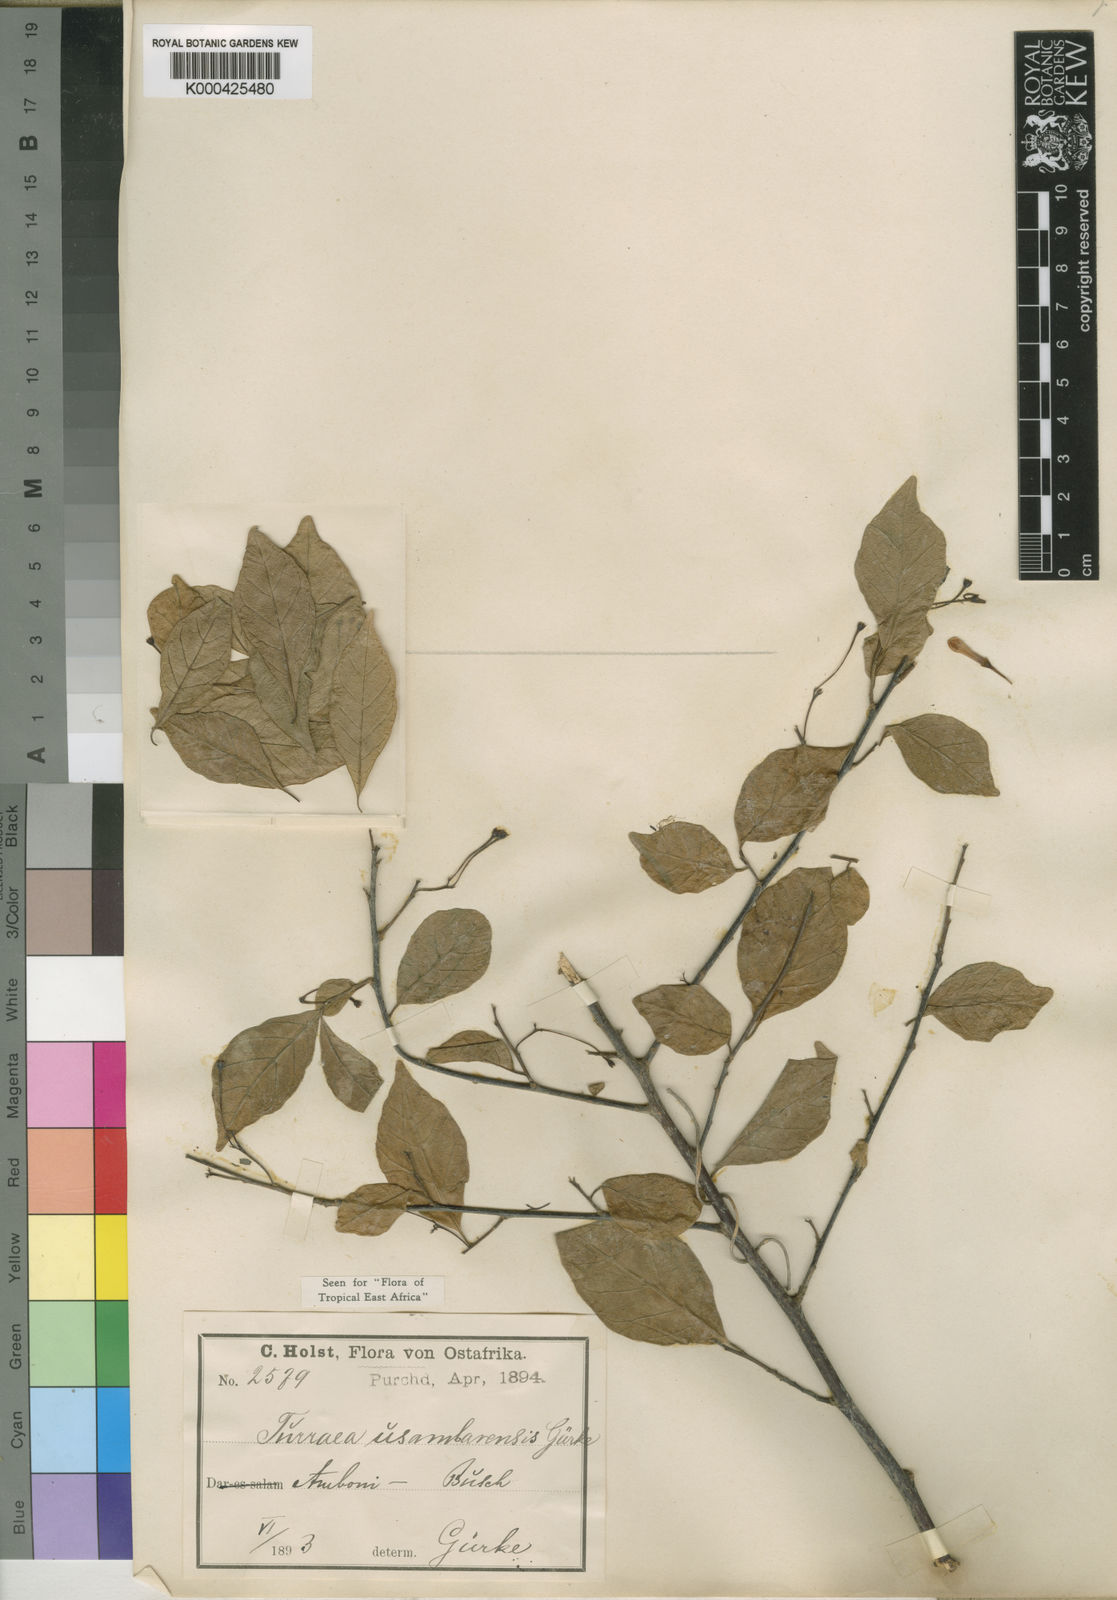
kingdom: Plantae
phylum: Tracheophyta
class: Magnoliopsida
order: Sapindales
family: Meliaceae
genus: Turraea
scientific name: Turraea
